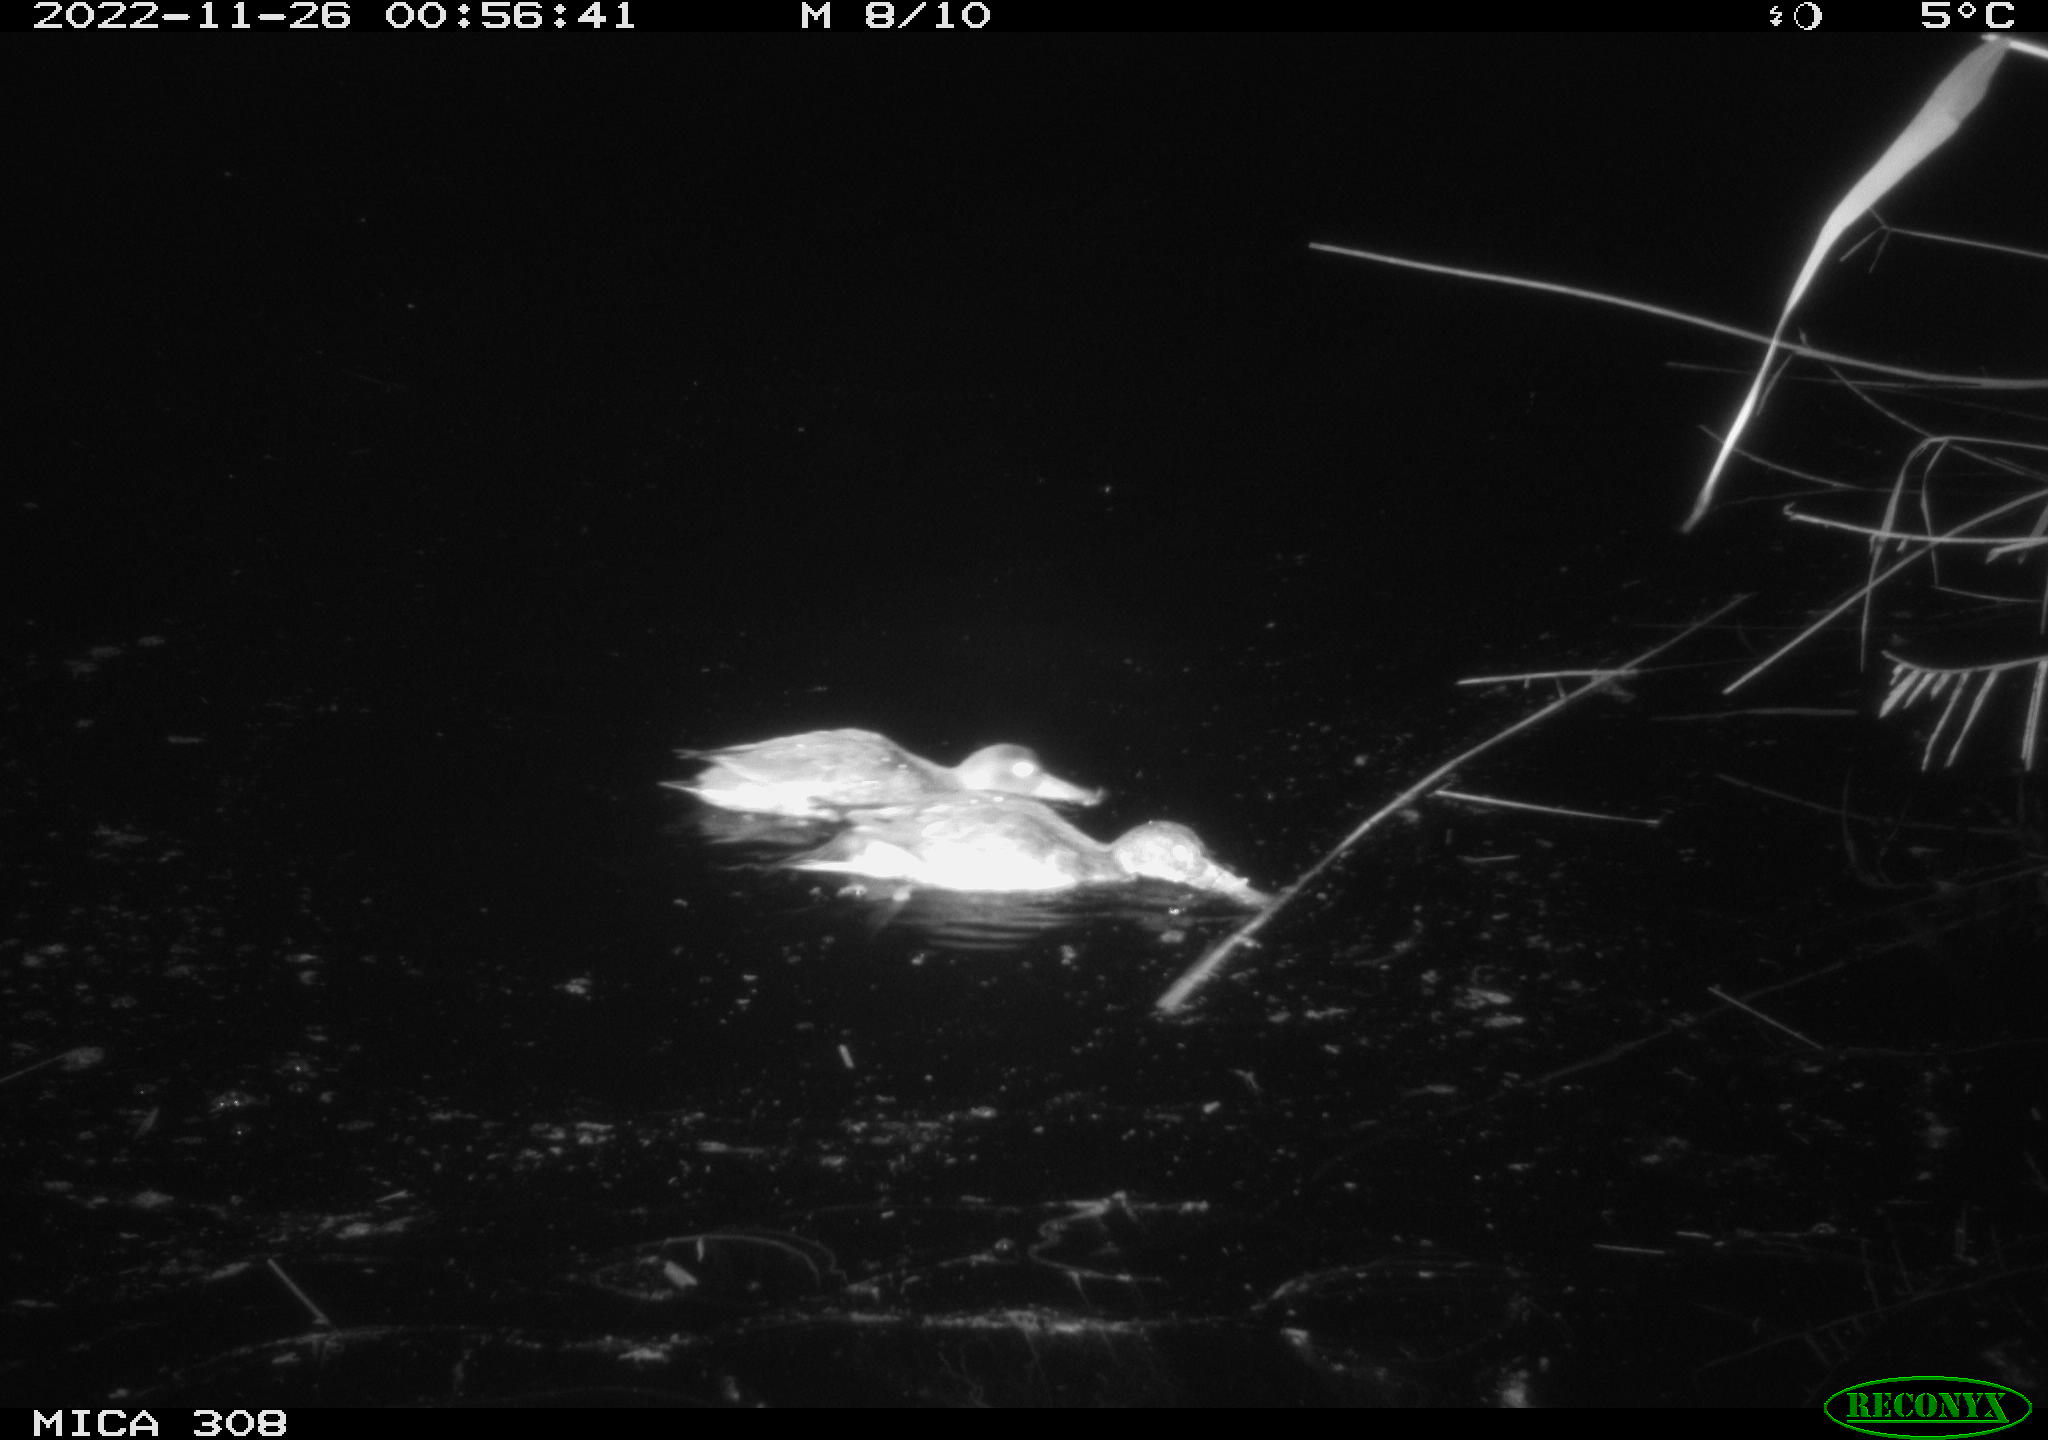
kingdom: Animalia
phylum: Chordata
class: Aves
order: Anseriformes
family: Anatidae
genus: Anas
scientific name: Anas
